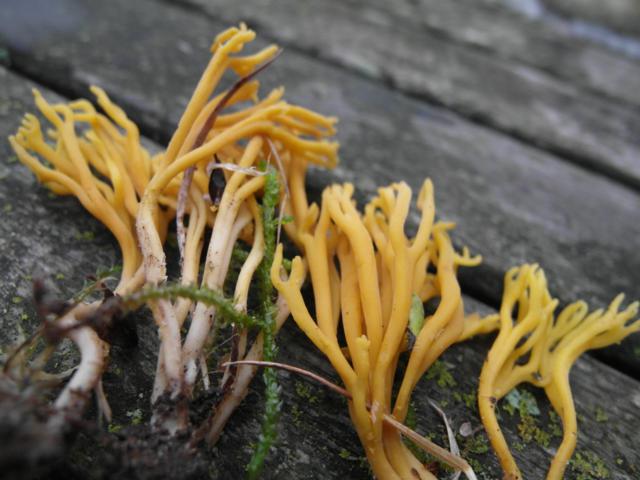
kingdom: Fungi
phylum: Basidiomycota
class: Agaricomycetes
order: Agaricales
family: Clavariaceae
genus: Clavulinopsis
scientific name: Clavulinopsis corniculata
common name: eng-køllesvamp
